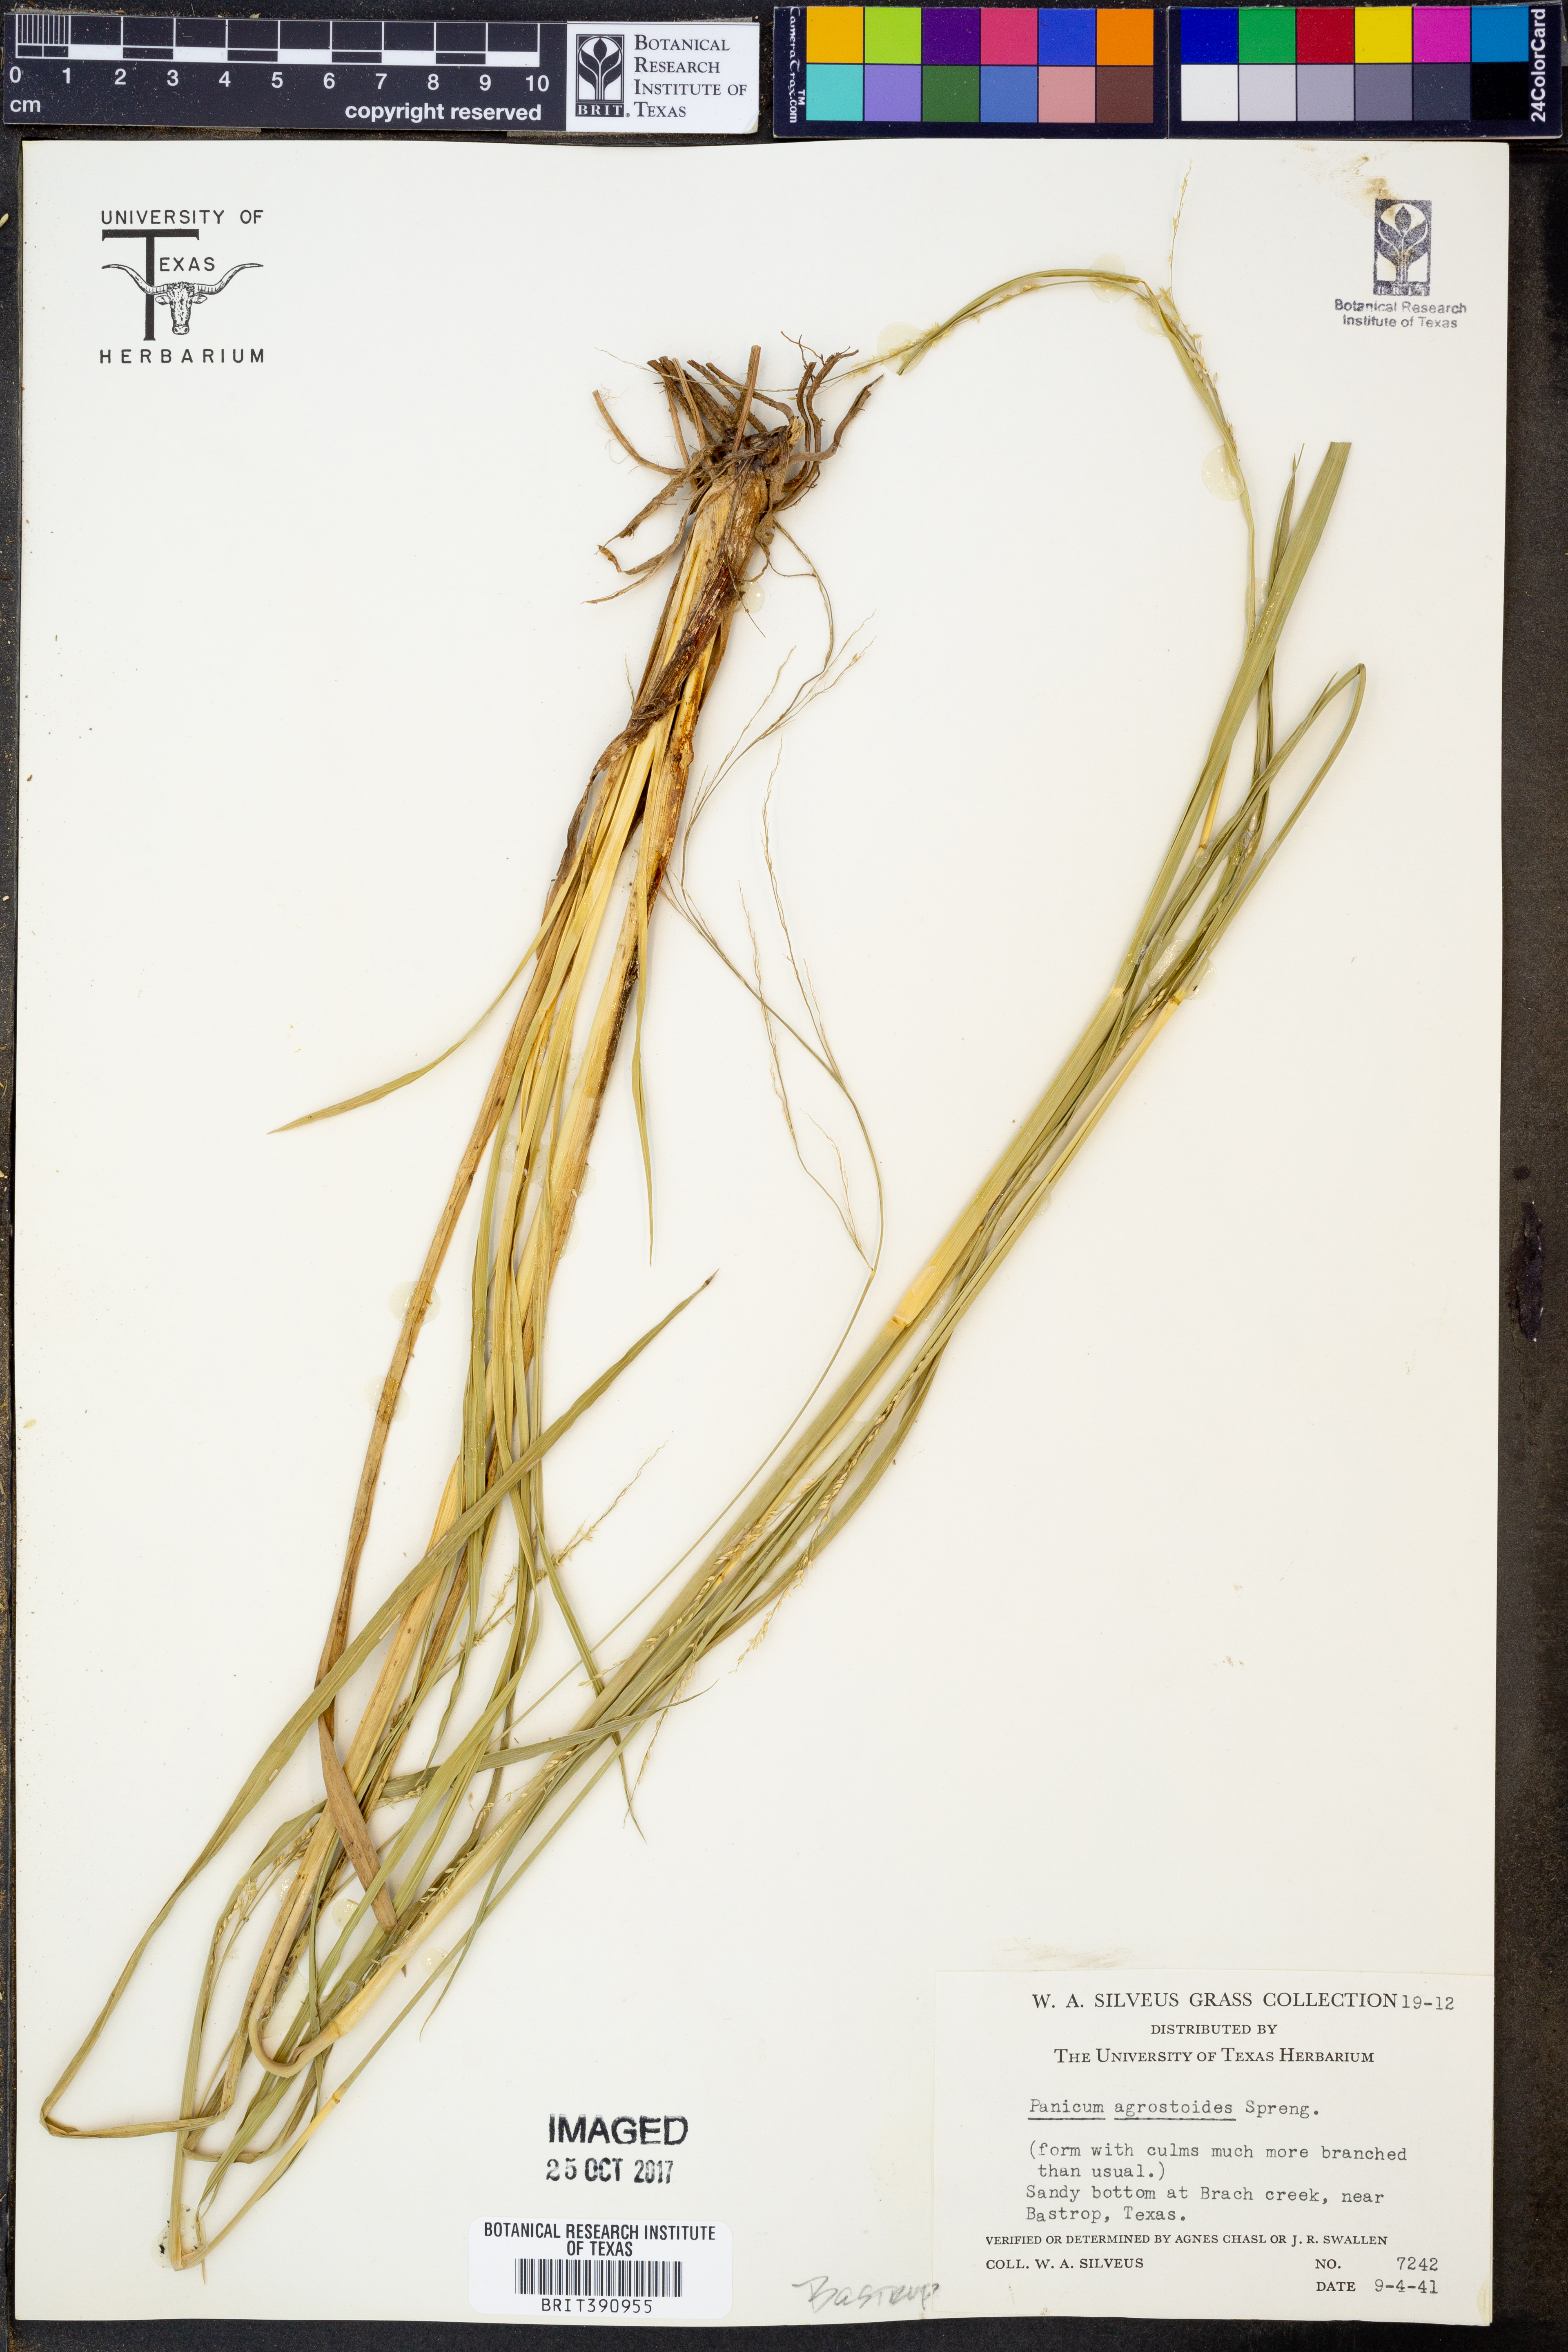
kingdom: Plantae
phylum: Tracheophyta
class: Liliopsida
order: Poales
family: Poaceae
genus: Steinchisma
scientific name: Steinchisma laxum
